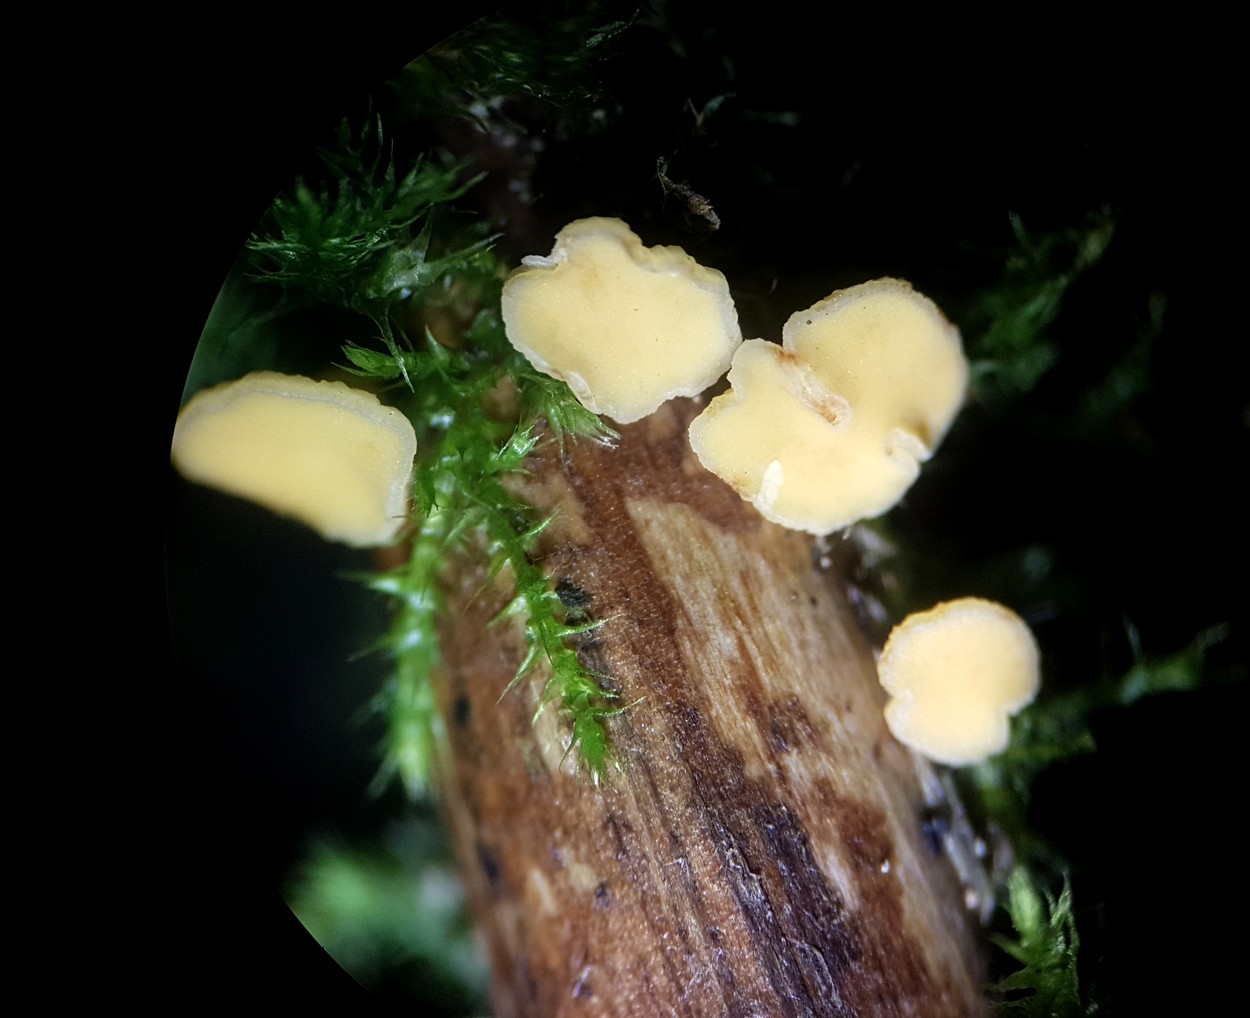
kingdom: Fungi
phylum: Ascomycota
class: Leotiomycetes
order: Helotiales
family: Helotiaceae
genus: Hymenoscyphus
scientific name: Hymenoscyphus
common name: stilkskive
